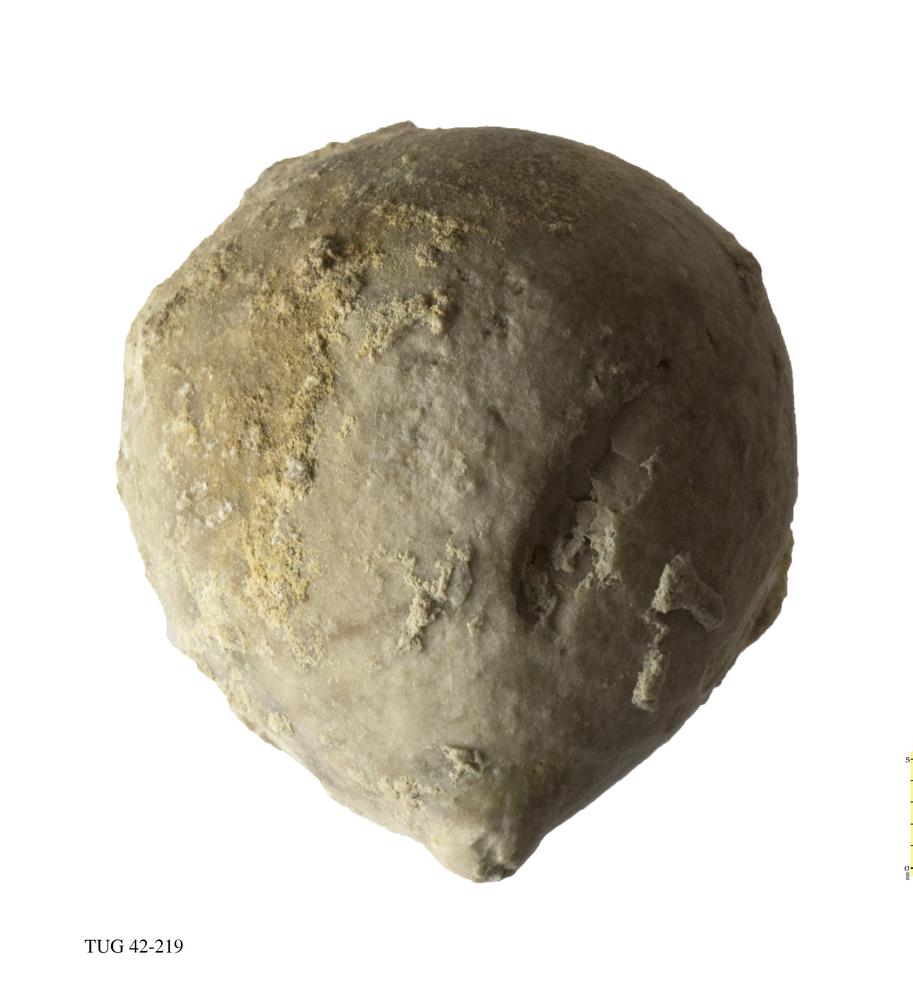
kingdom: Animalia
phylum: Echinodermata
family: Echinosphaeritidae
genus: Echinosphaerites
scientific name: Echinosphaerites Echinus aurantium
